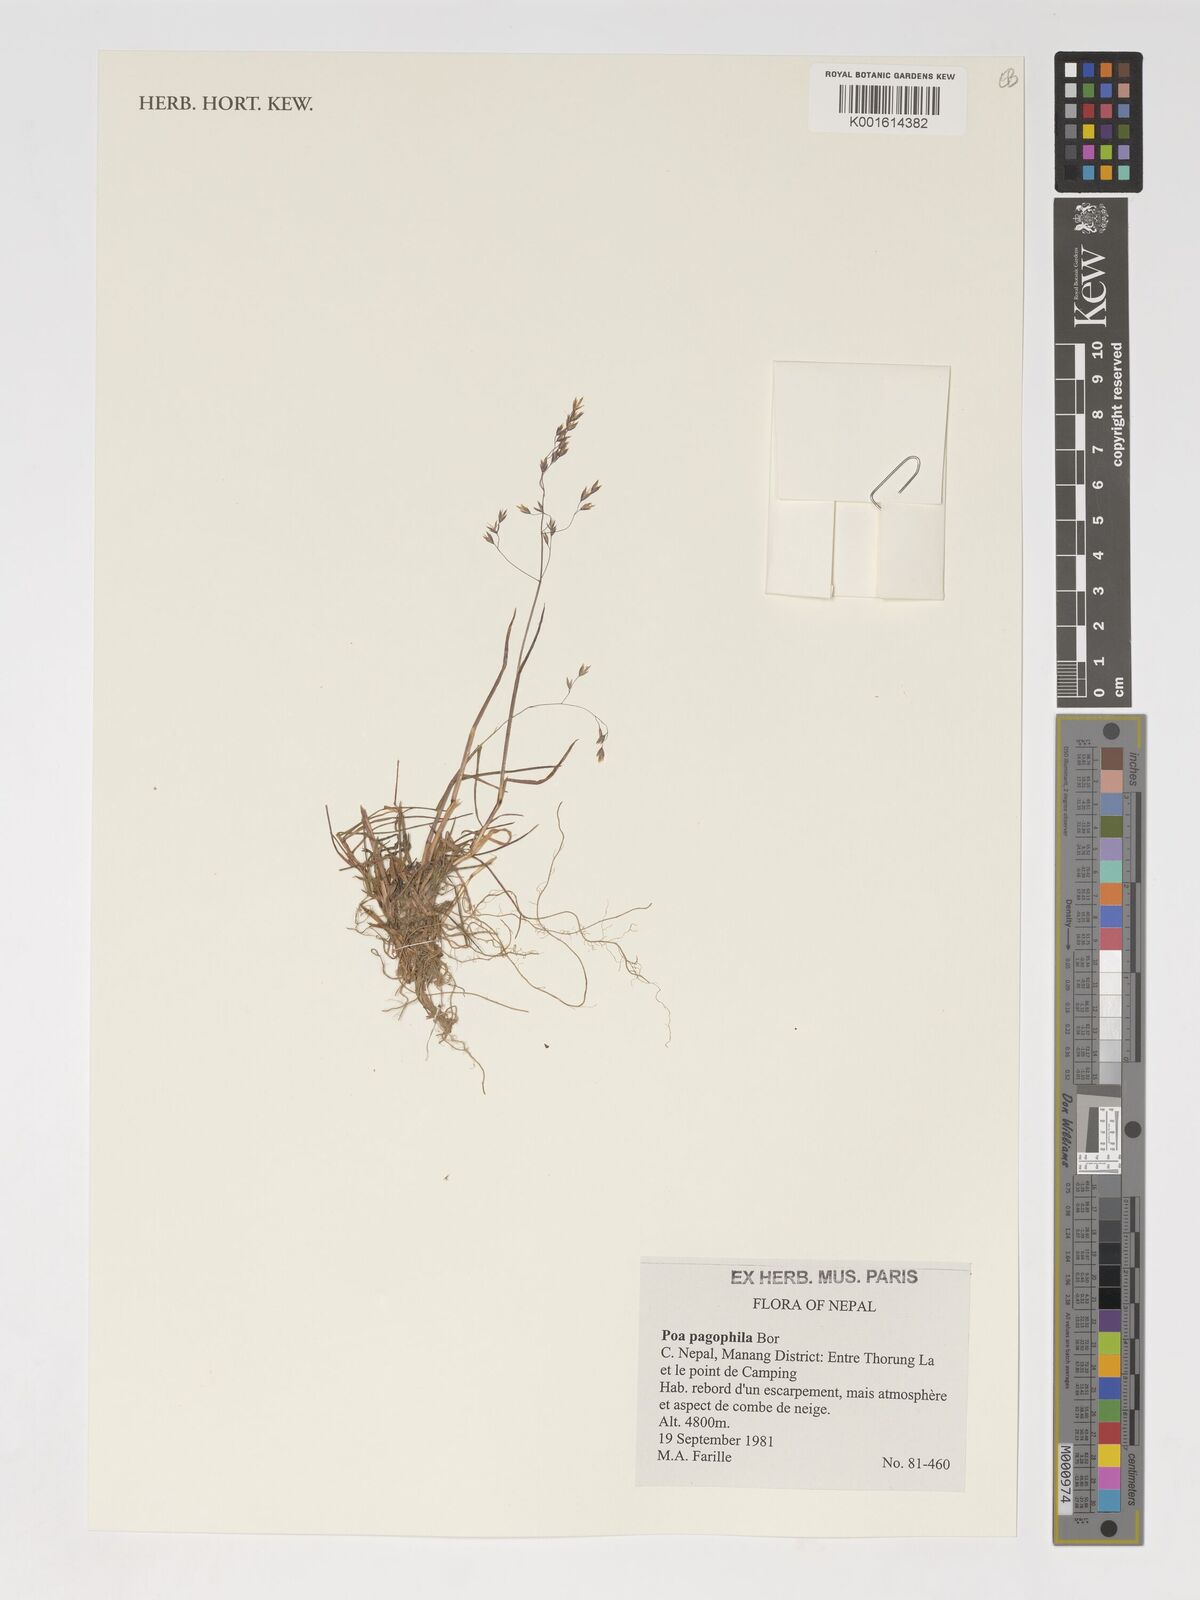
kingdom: Plantae
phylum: Tracheophyta
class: Liliopsida
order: Poales
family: Poaceae
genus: Poa
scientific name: Poa pagophila
